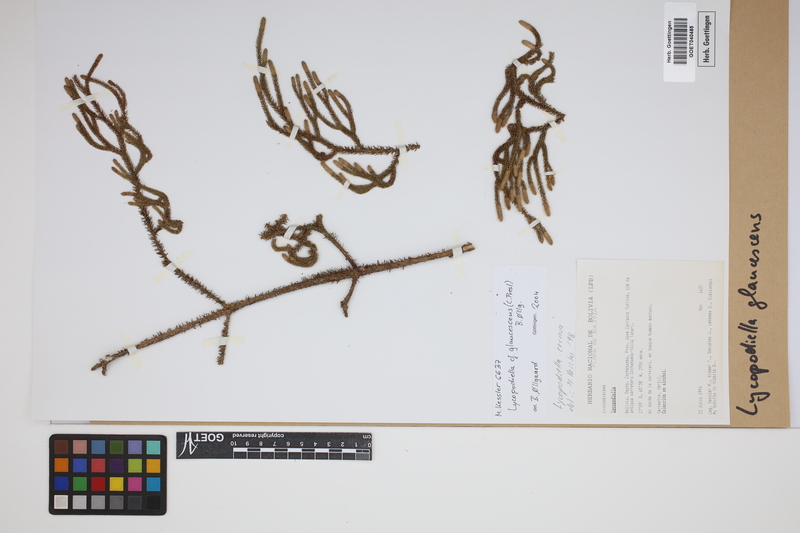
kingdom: Plantae
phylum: Tracheophyta
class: Lycopodiopsida
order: Lycopodiales
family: Lycopodiaceae
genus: Palhinhaea
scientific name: Palhinhaea glaucescens
